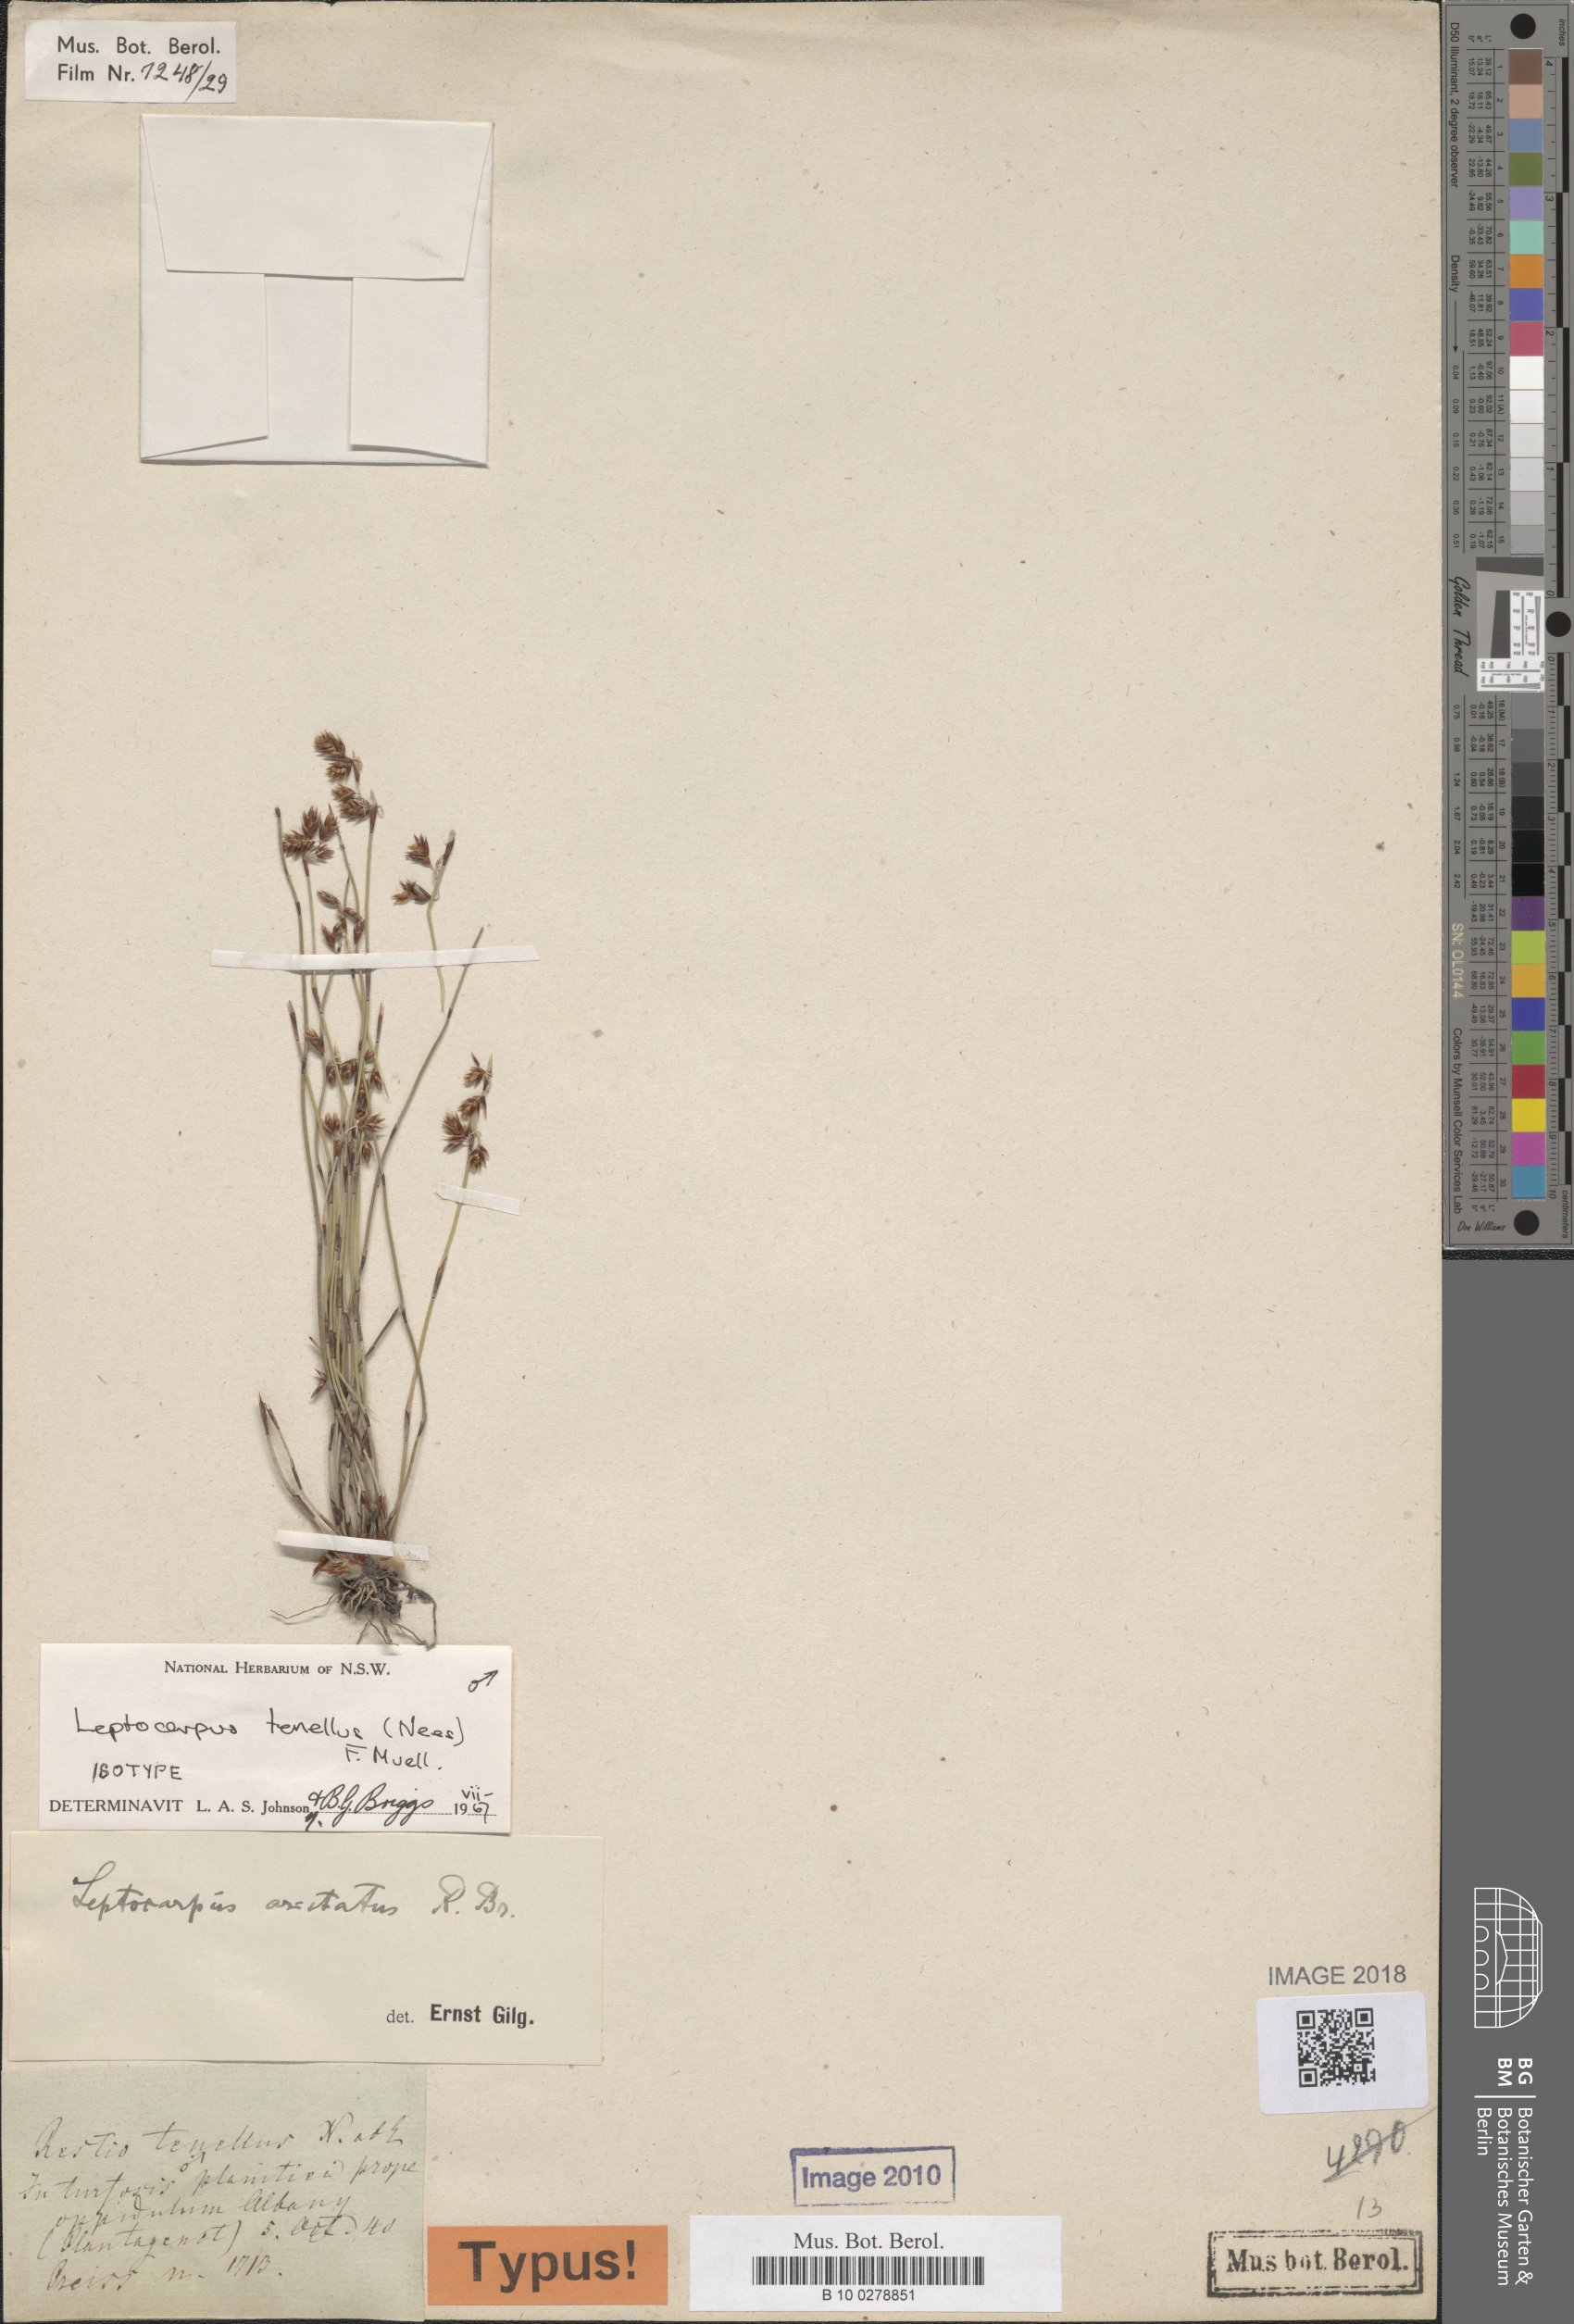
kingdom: Plantae
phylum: Tracheophyta
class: Liliopsida
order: Poales
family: Restionaceae
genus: Chaetanthus
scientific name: Chaetanthus tenellus
